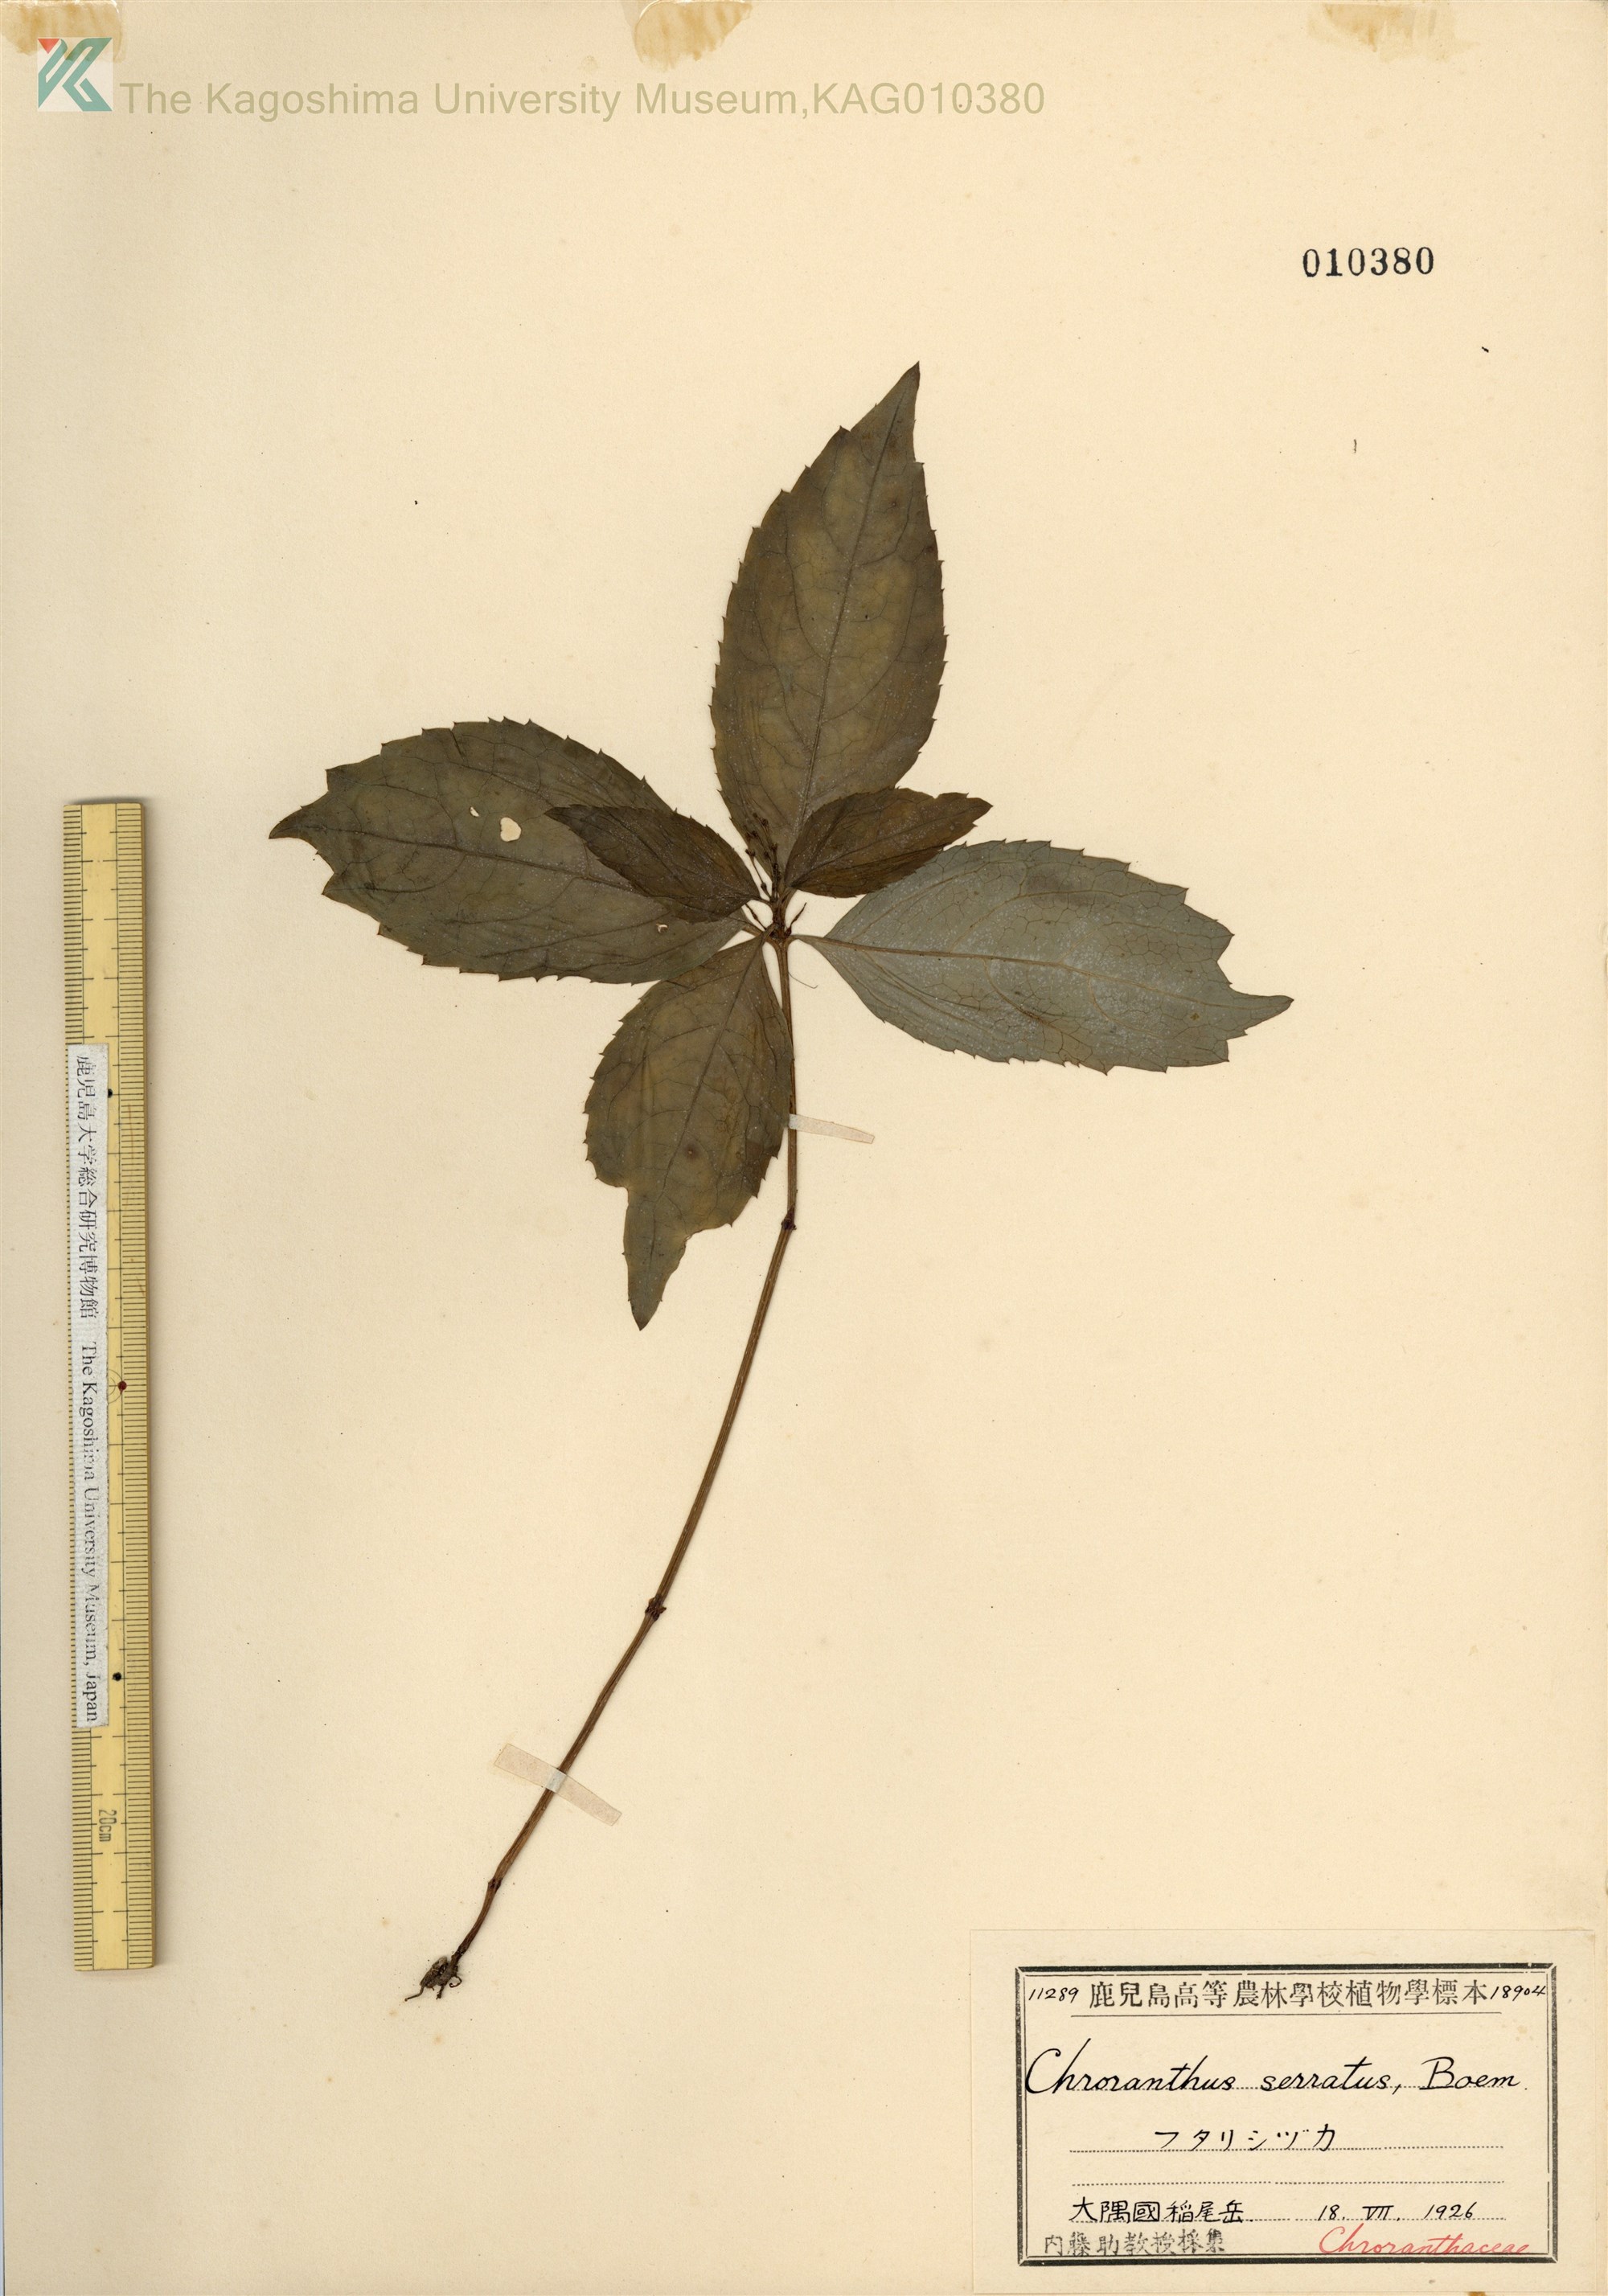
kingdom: Plantae
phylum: Tracheophyta
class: Magnoliopsida
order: Chloranthales
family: Chloranthaceae
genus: Chloranthus
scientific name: Chloranthus serratus
